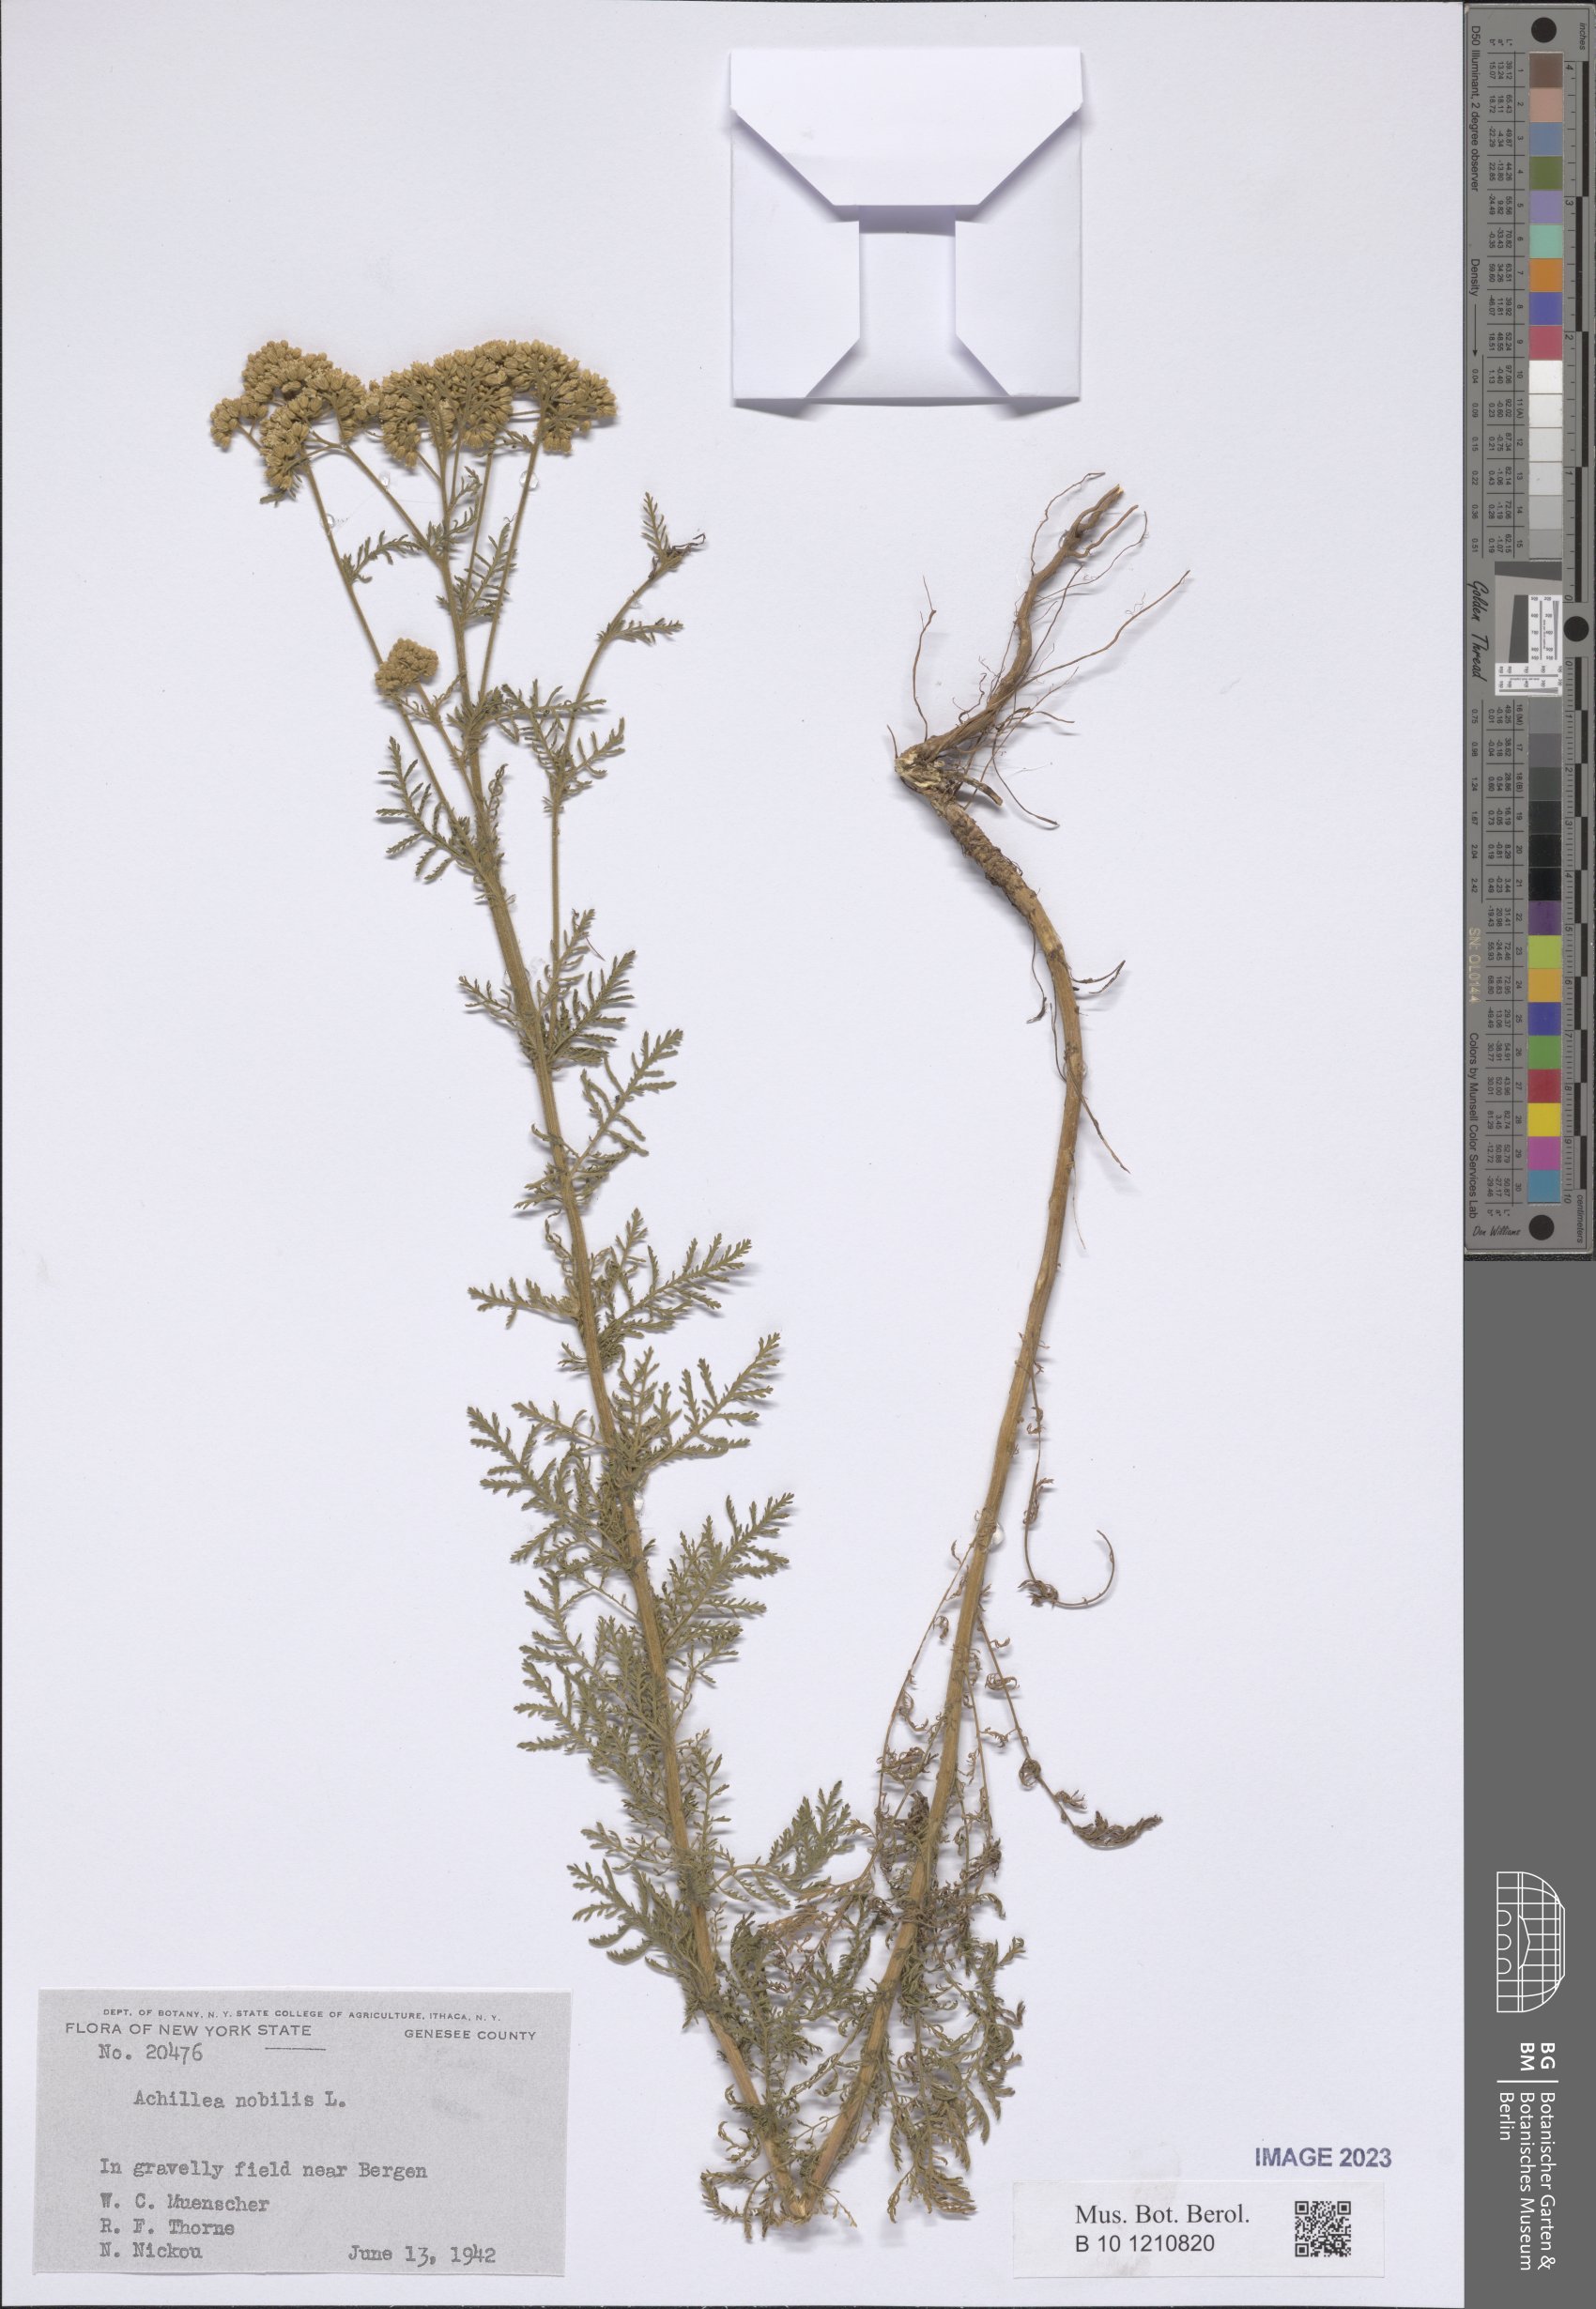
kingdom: Plantae
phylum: Tracheophyta
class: Magnoliopsida
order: Asterales
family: Asteraceae
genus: Achillea
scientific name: Achillea nobilis
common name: Noble yarrow
